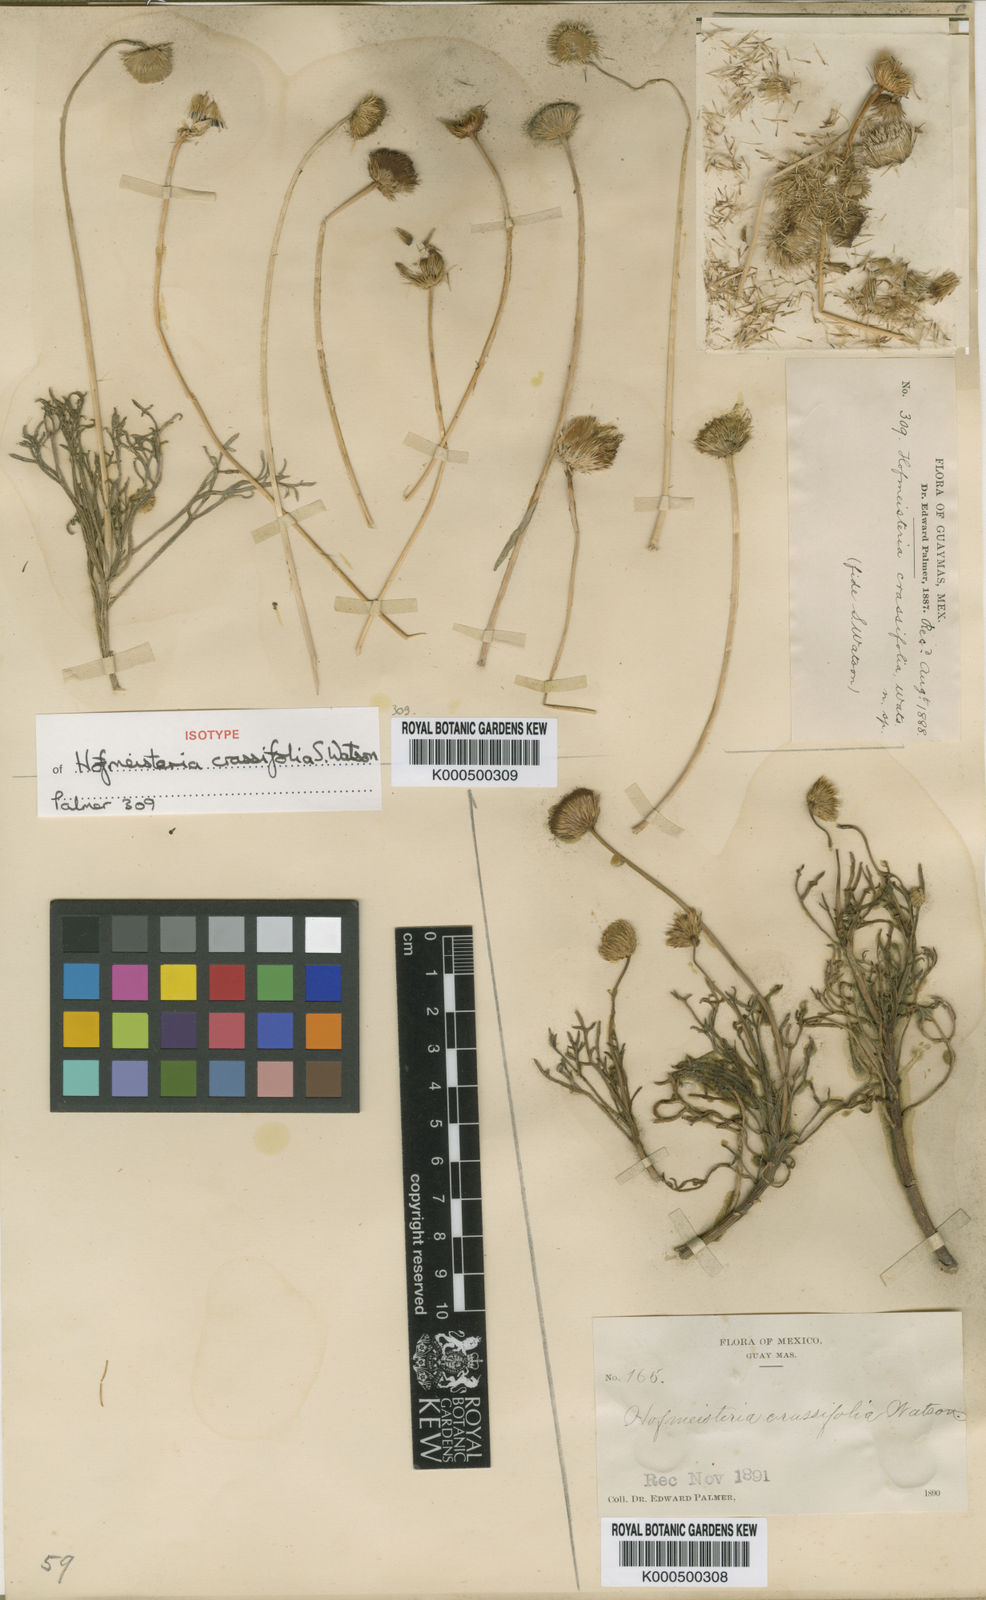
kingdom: Plantae
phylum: Tracheophyta
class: Magnoliopsida
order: Asterales
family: Asteraceae
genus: Hofmeisteria
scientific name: Hofmeisteria crassifolia
